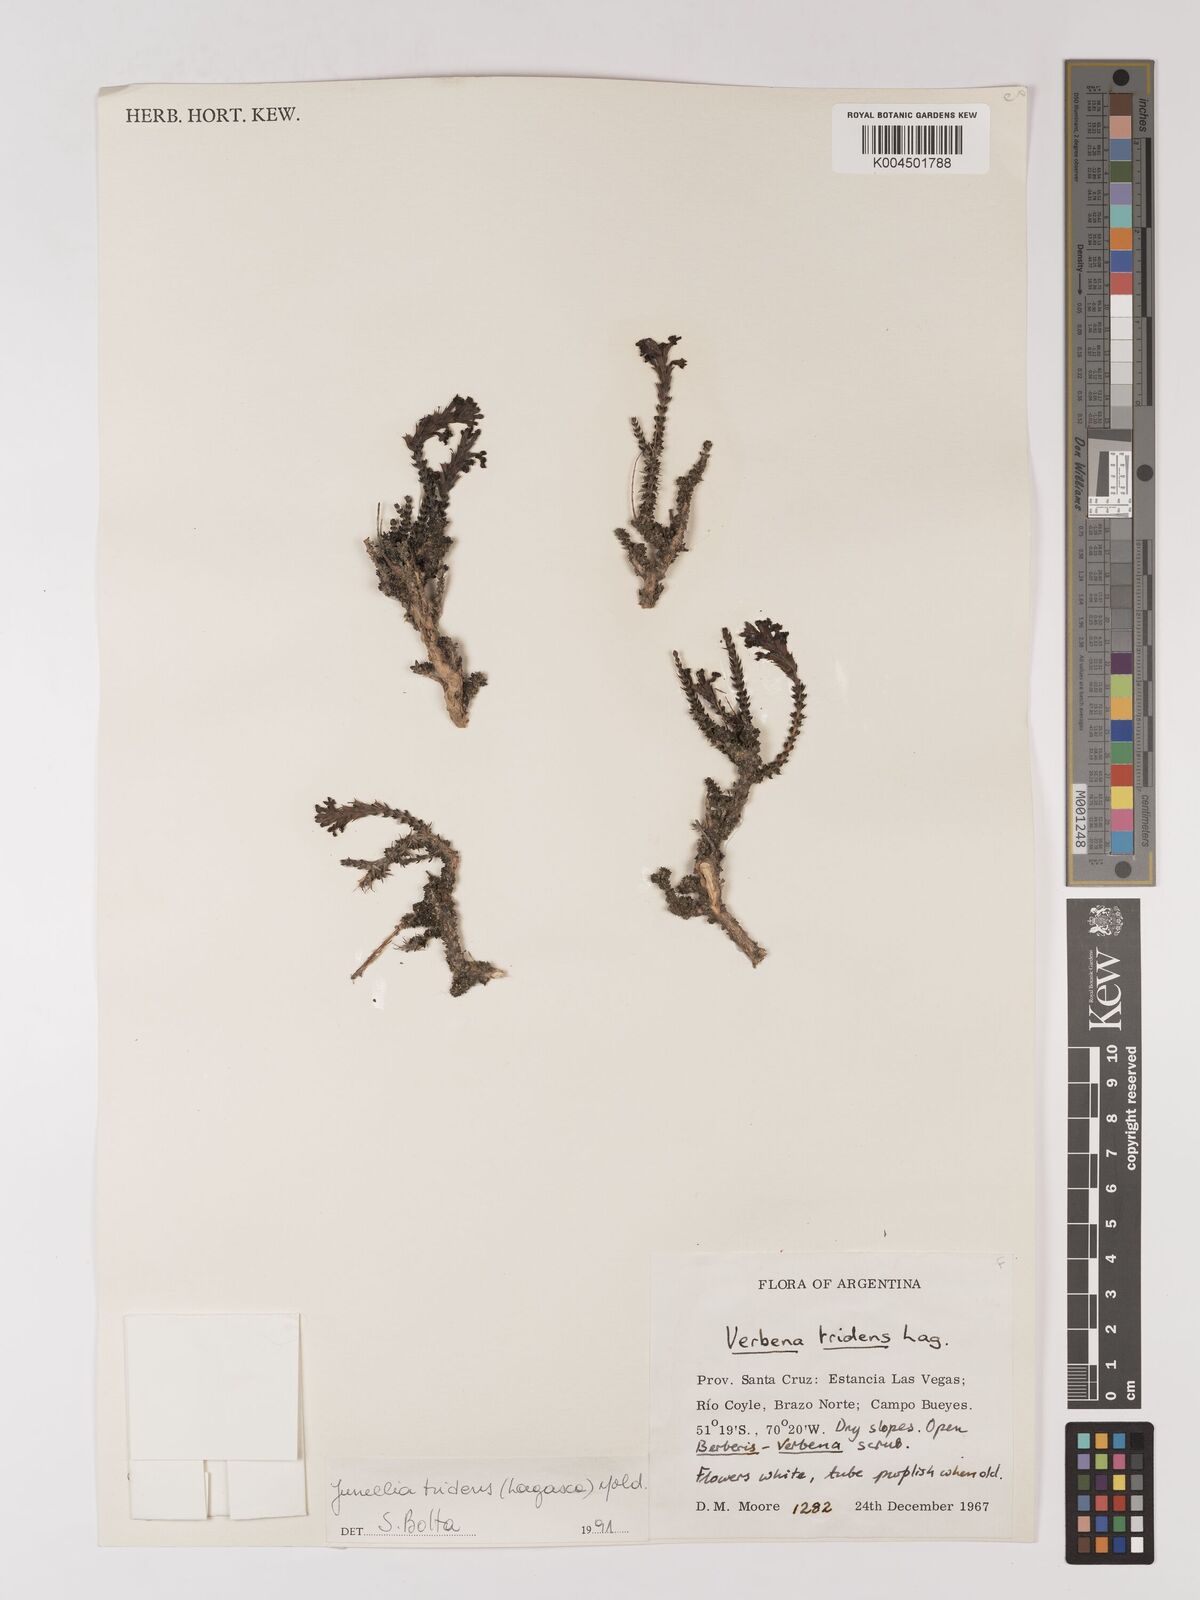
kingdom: Plantae
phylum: Tracheophyta
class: Magnoliopsida
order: Lamiales
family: Verbenaceae
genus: Mulguraea
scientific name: Mulguraea tridens
